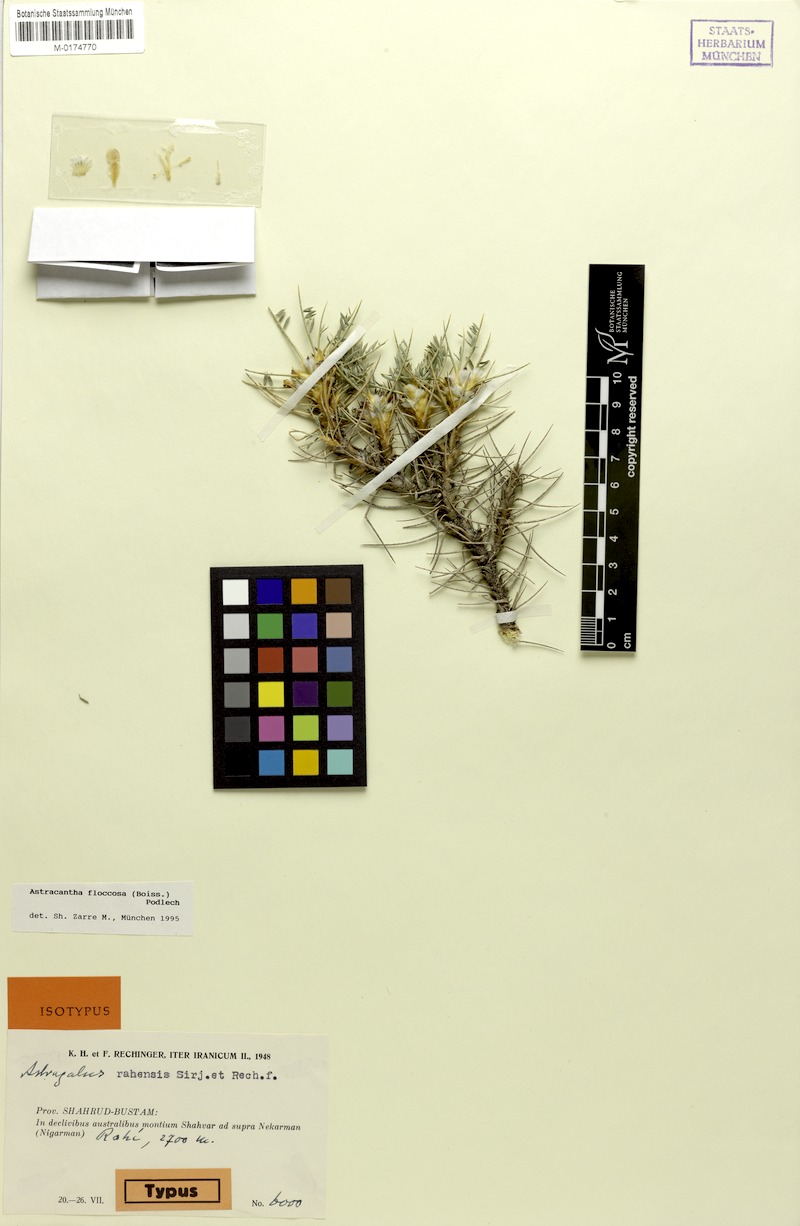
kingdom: Plantae
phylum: Tracheophyta
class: Magnoliopsida
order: Fabales
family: Fabaceae
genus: Astragalus
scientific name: Astragalus floccosus
